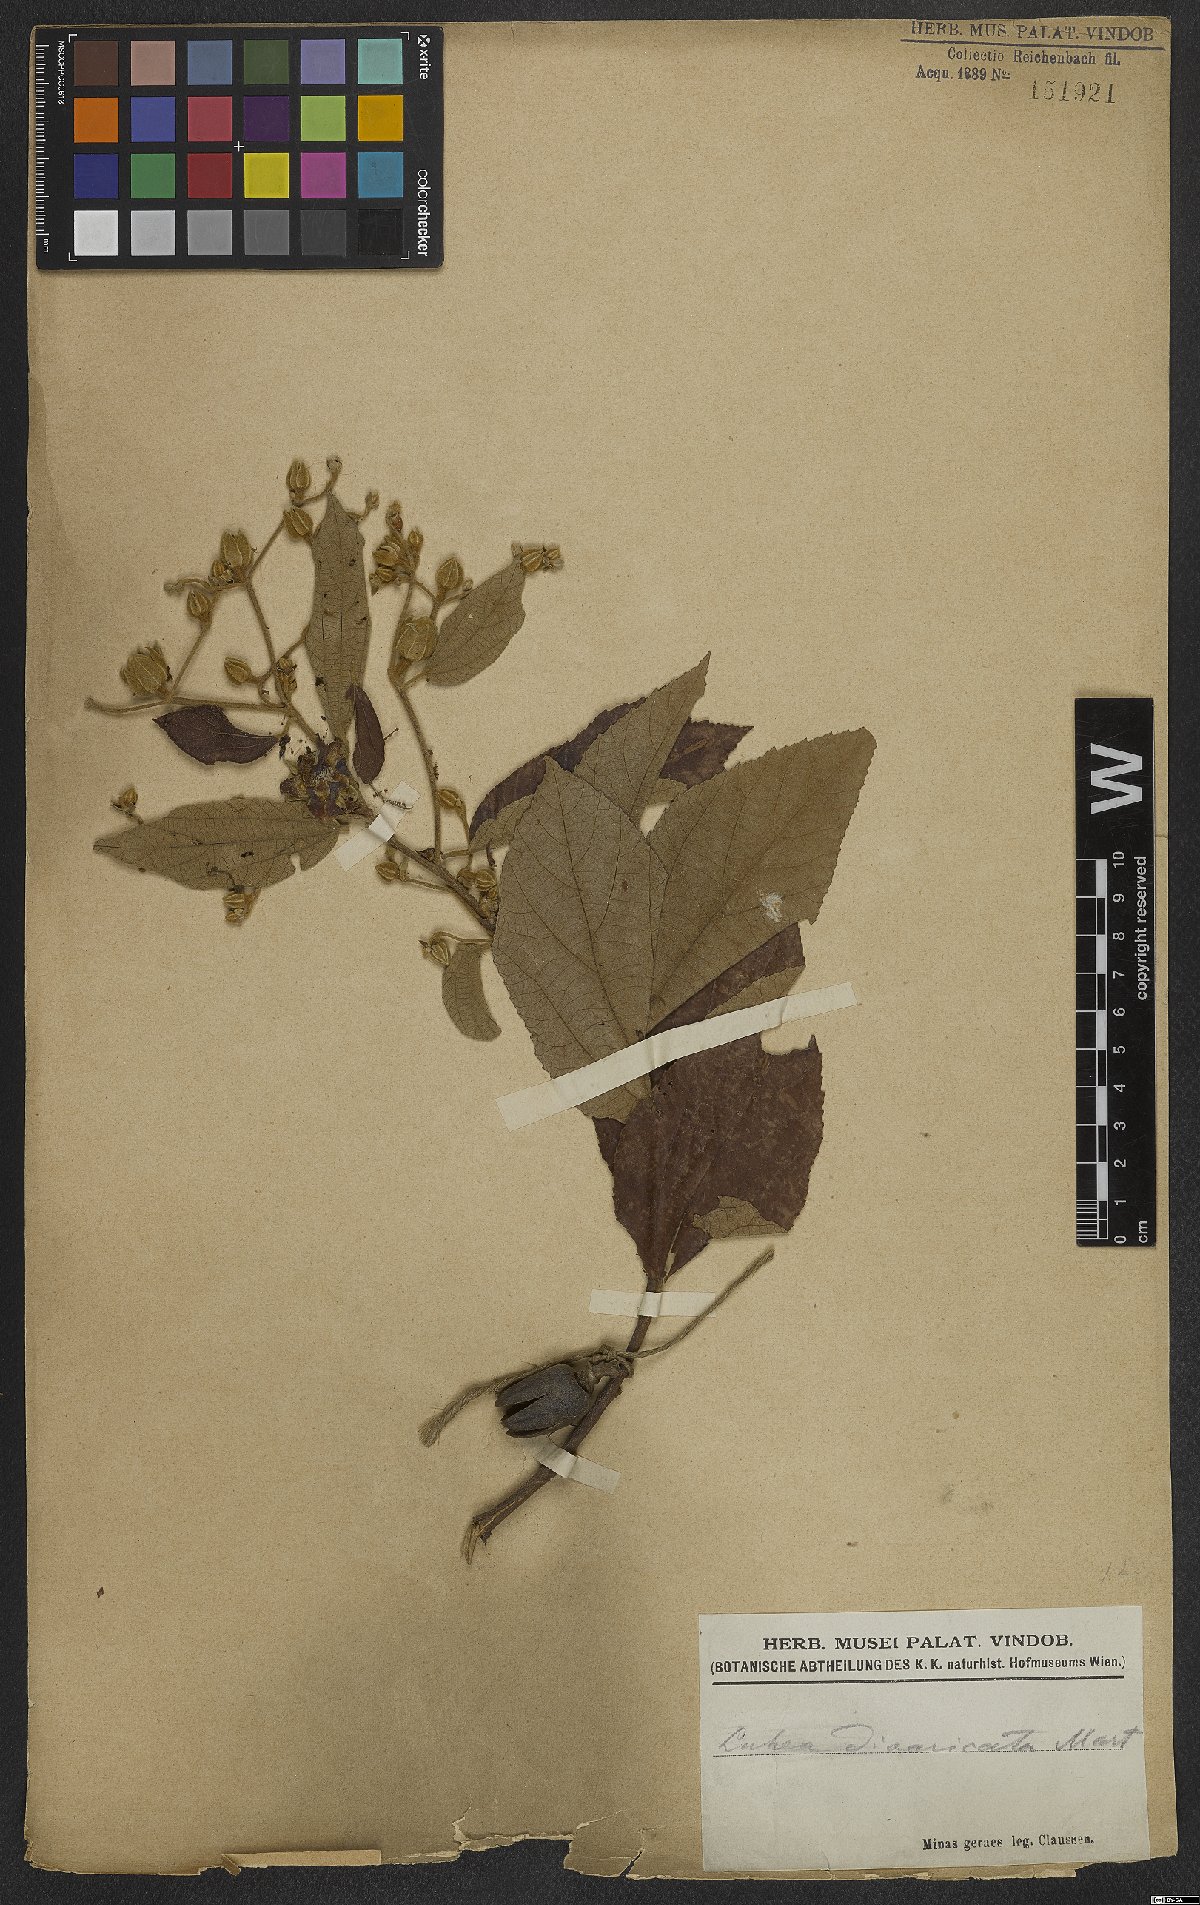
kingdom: Plantae
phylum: Tracheophyta
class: Magnoliopsida
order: Malvales
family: Malvaceae
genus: Luehea
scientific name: Luehea divaricata
